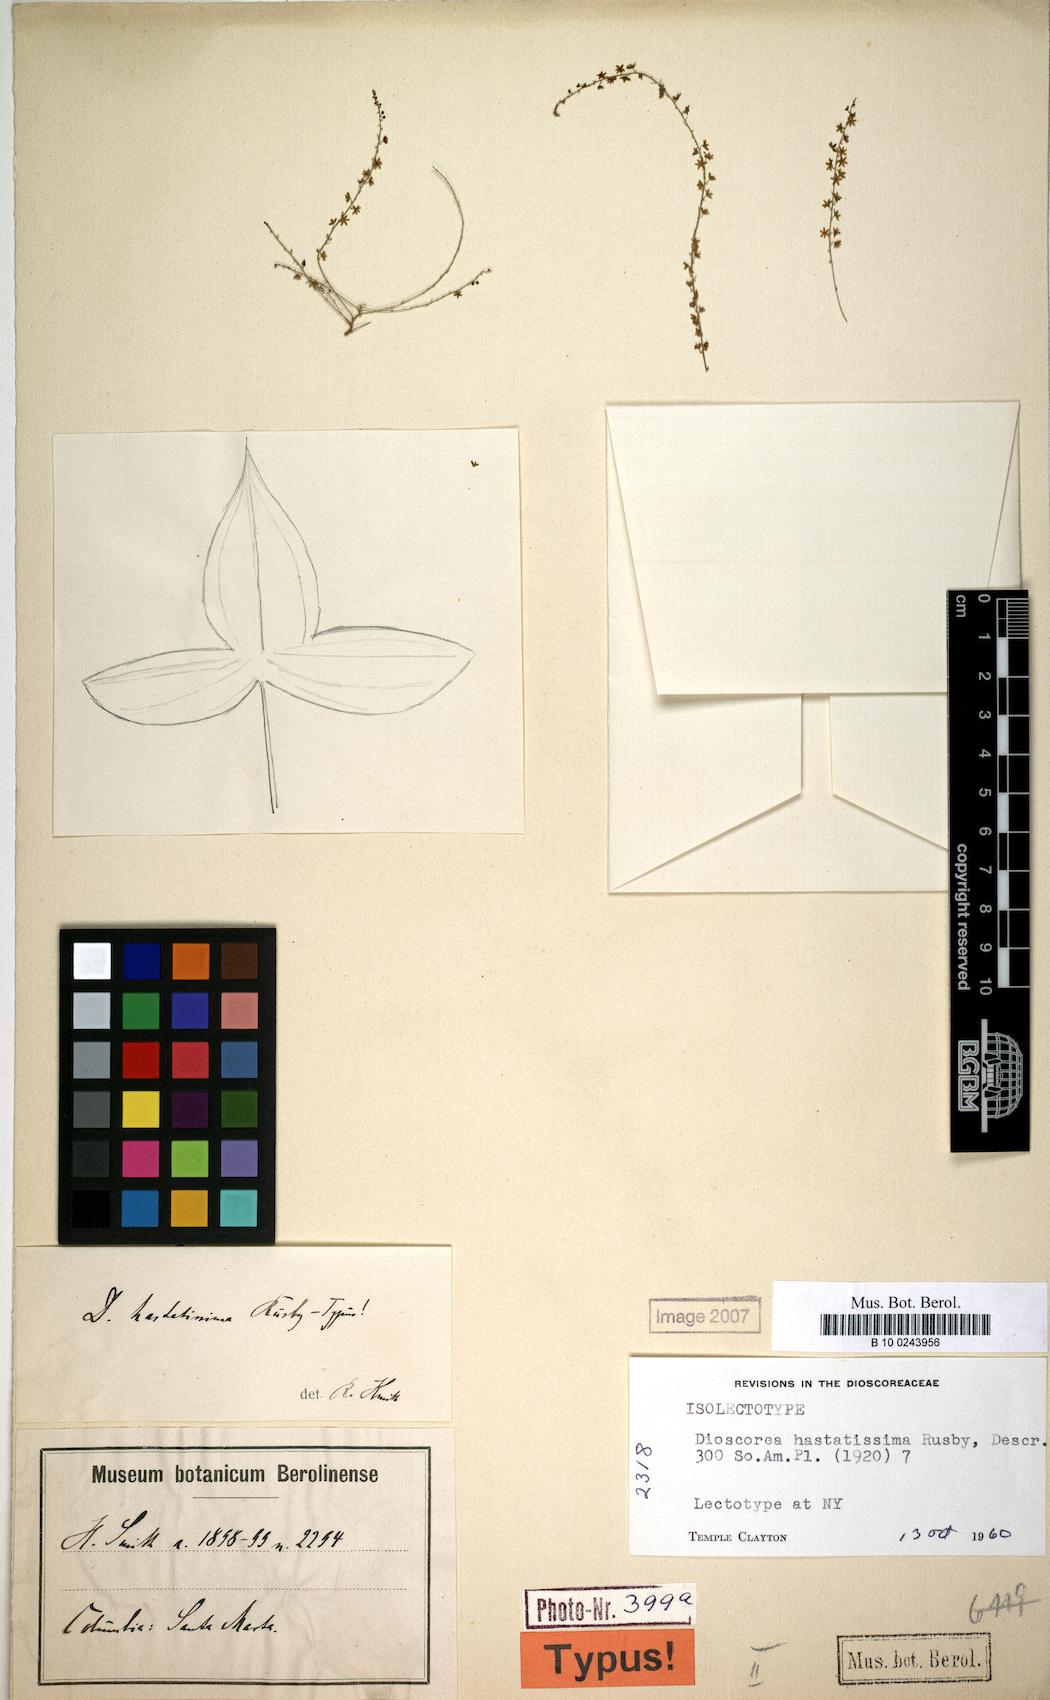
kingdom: Plantae
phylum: Tracheophyta
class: Liliopsida
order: Dioscoreales
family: Dioscoreaceae
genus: Dioscorea
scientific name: Dioscorea hastatissima
